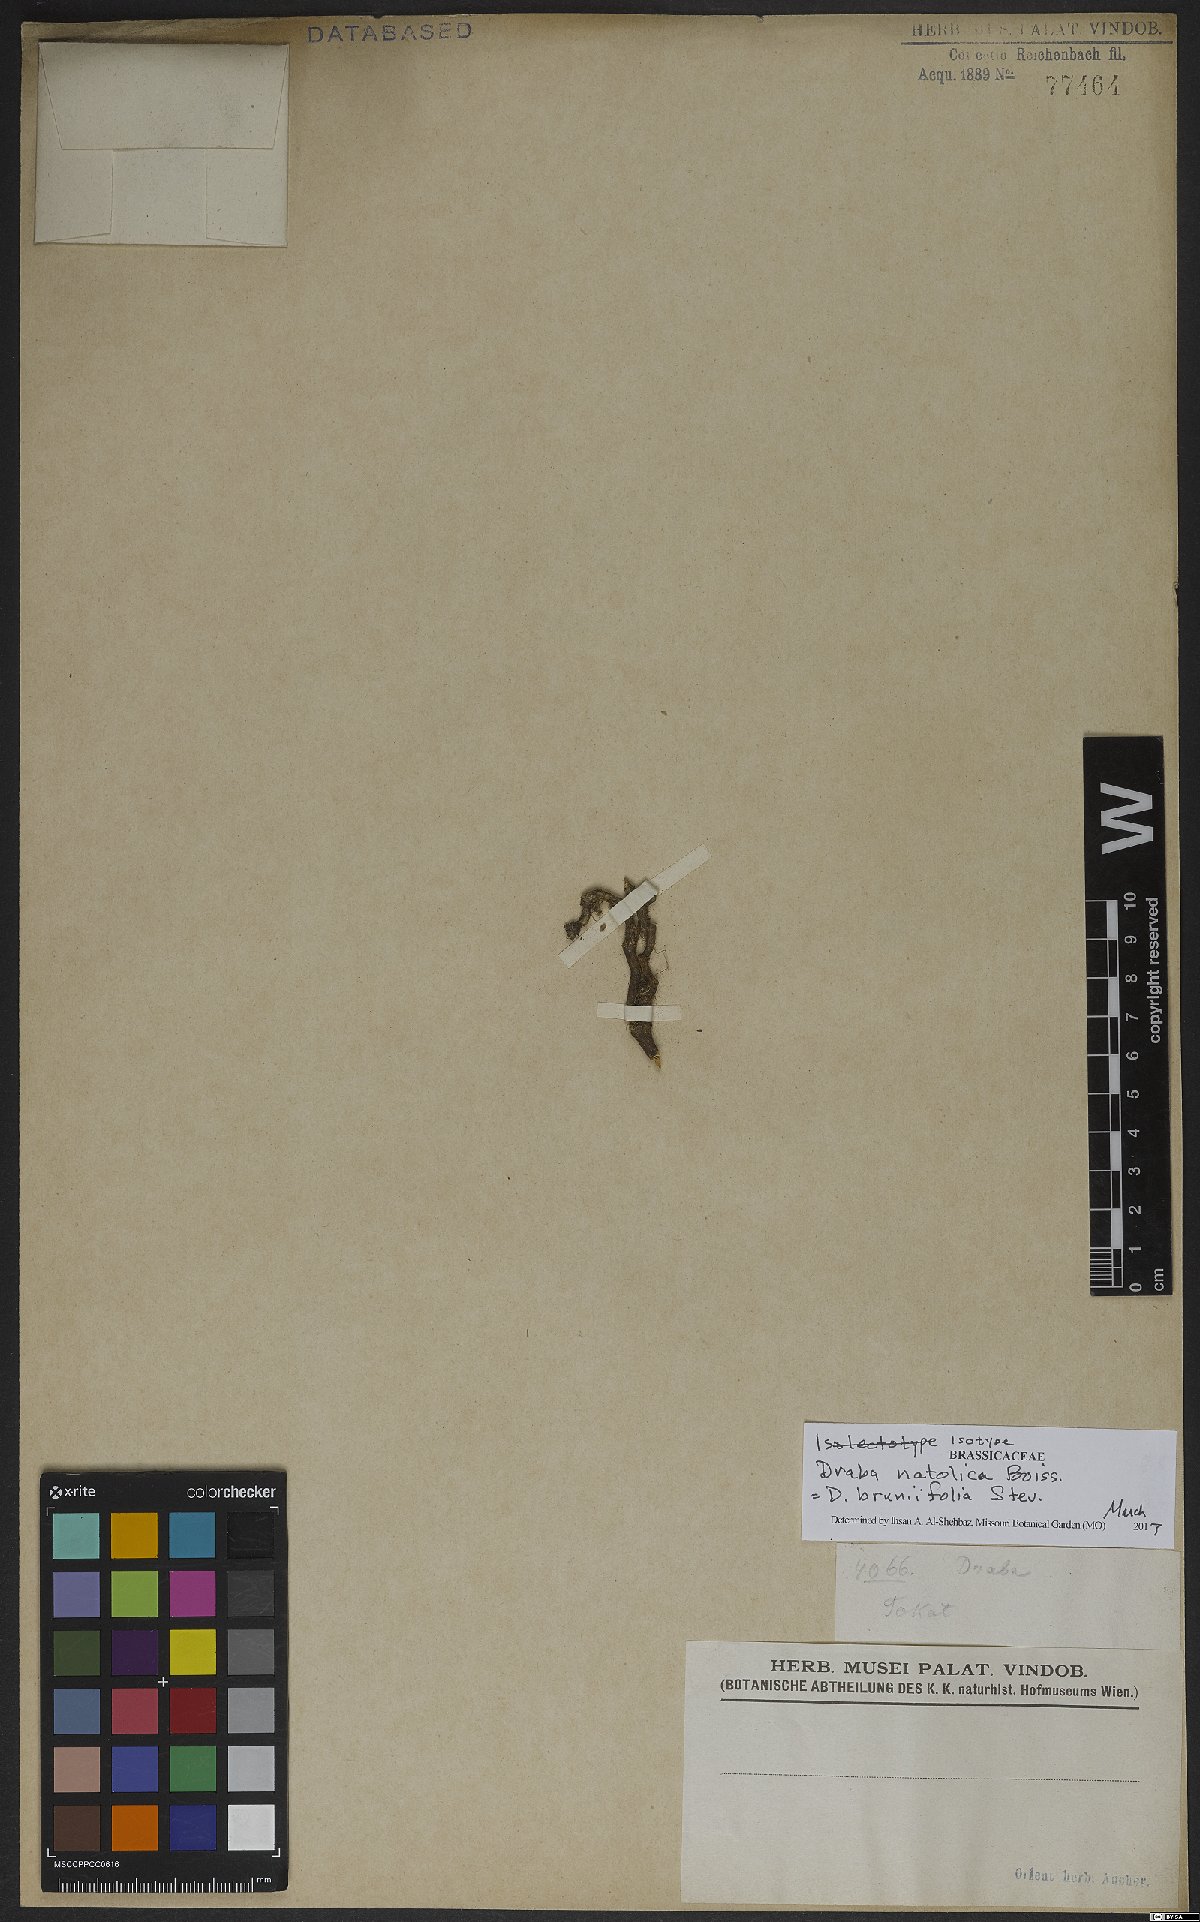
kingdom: Plantae
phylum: Tracheophyta
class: Magnoliopsida
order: Brassicales
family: Brassicaceae
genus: Draba
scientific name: Draba bruniifolia
